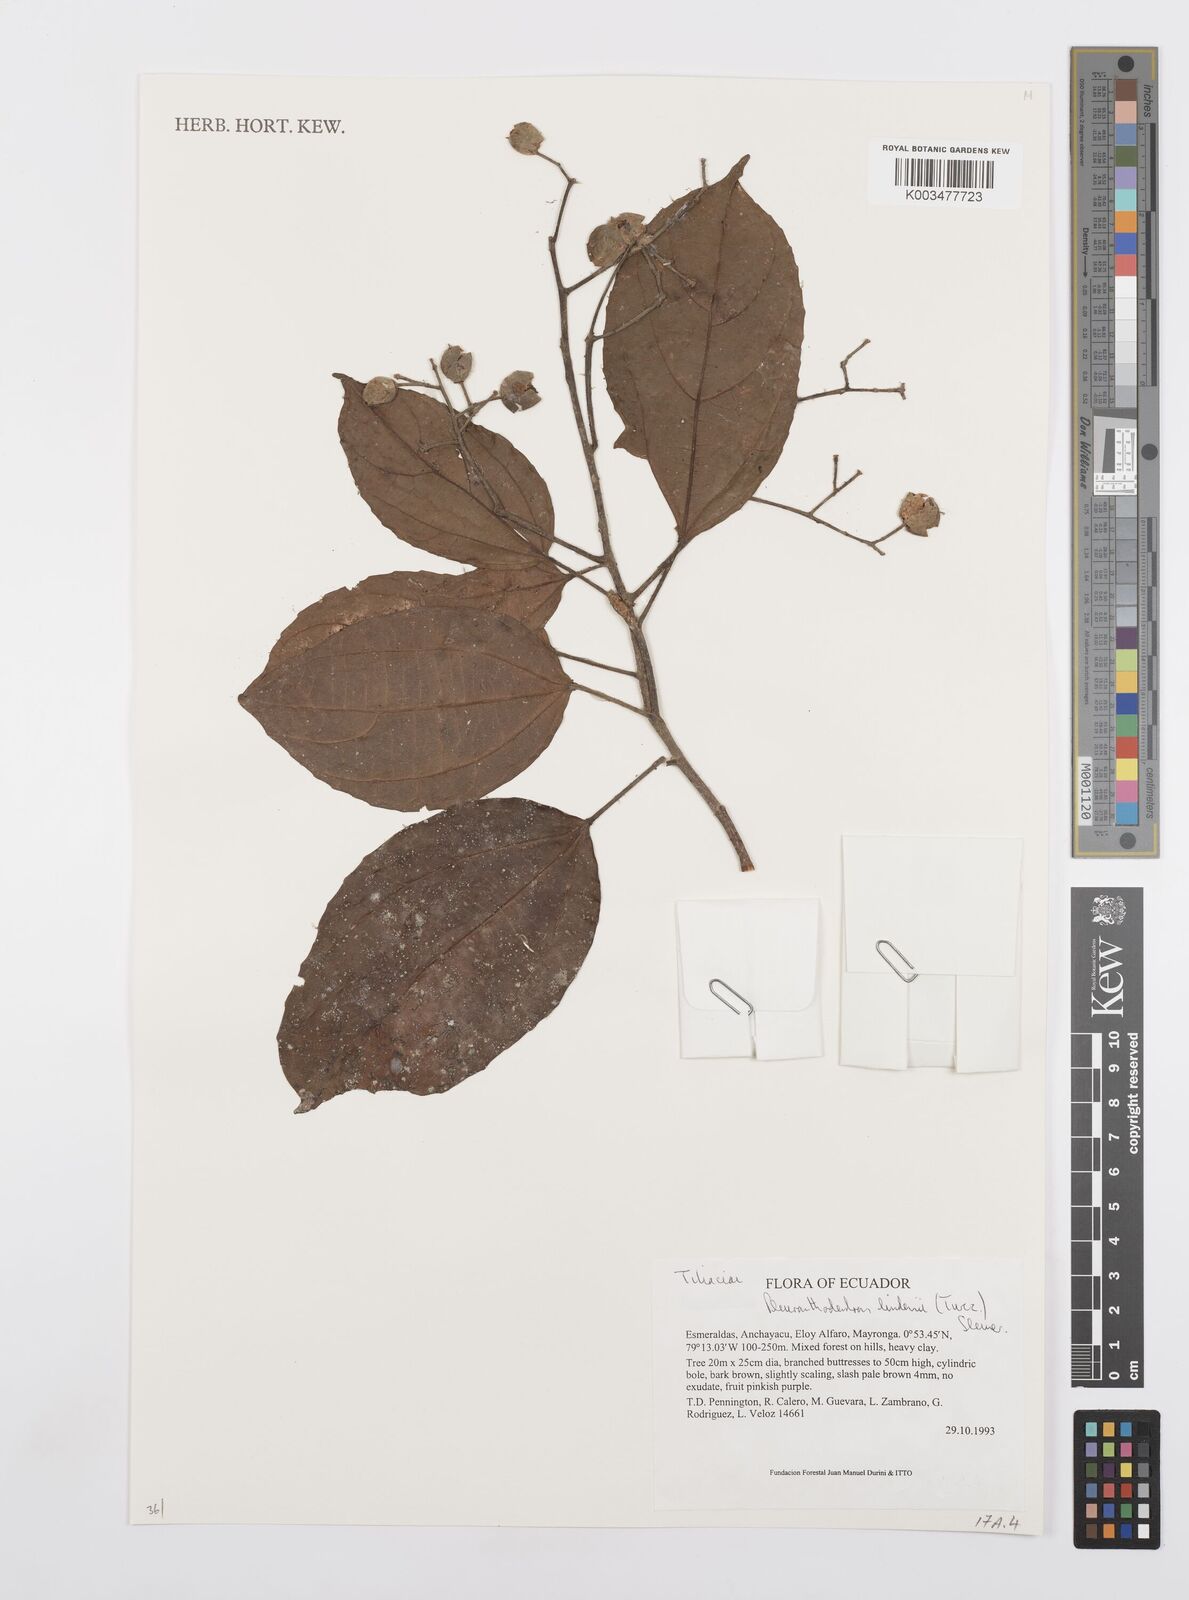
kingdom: Plantae
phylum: Tracheophyta
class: Magnoliopsida
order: Malpighiales
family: Salicaceae
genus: Pleuranthodendron
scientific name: Pleuranthodendron lindenii
